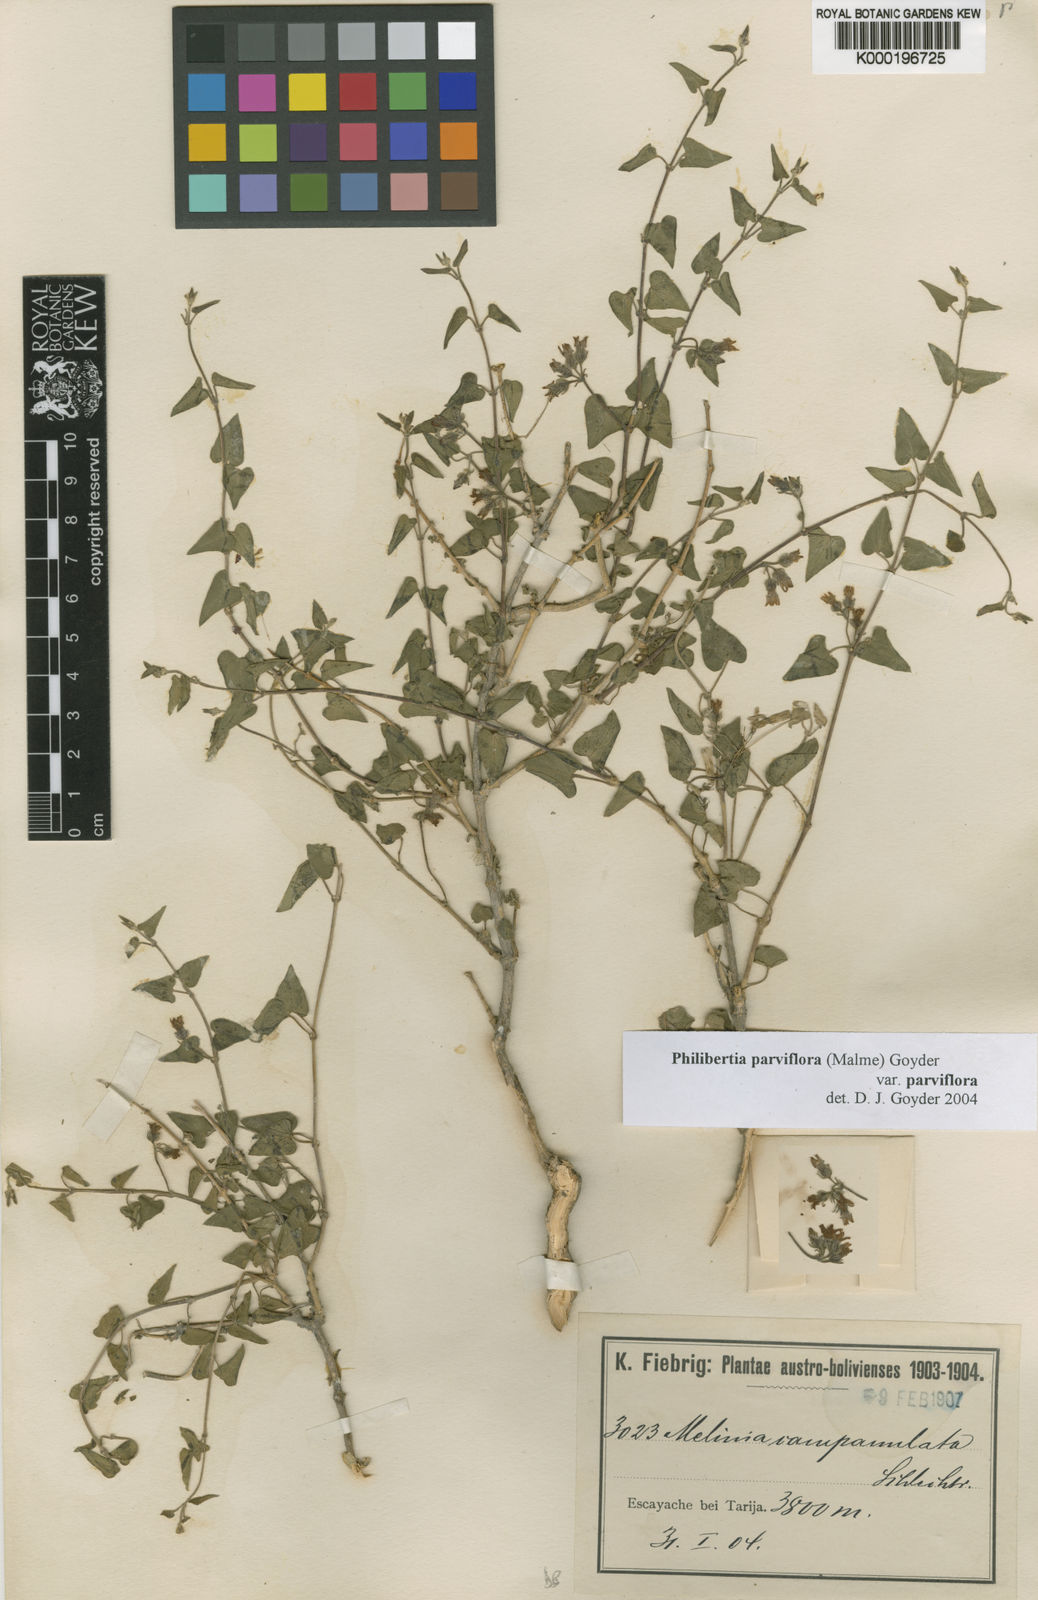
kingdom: Plantae
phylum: Tracheophyta
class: Magnoliopsida
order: Gentianales
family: Apocynaceae
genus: Philibertia
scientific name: Philibertia parviflora
